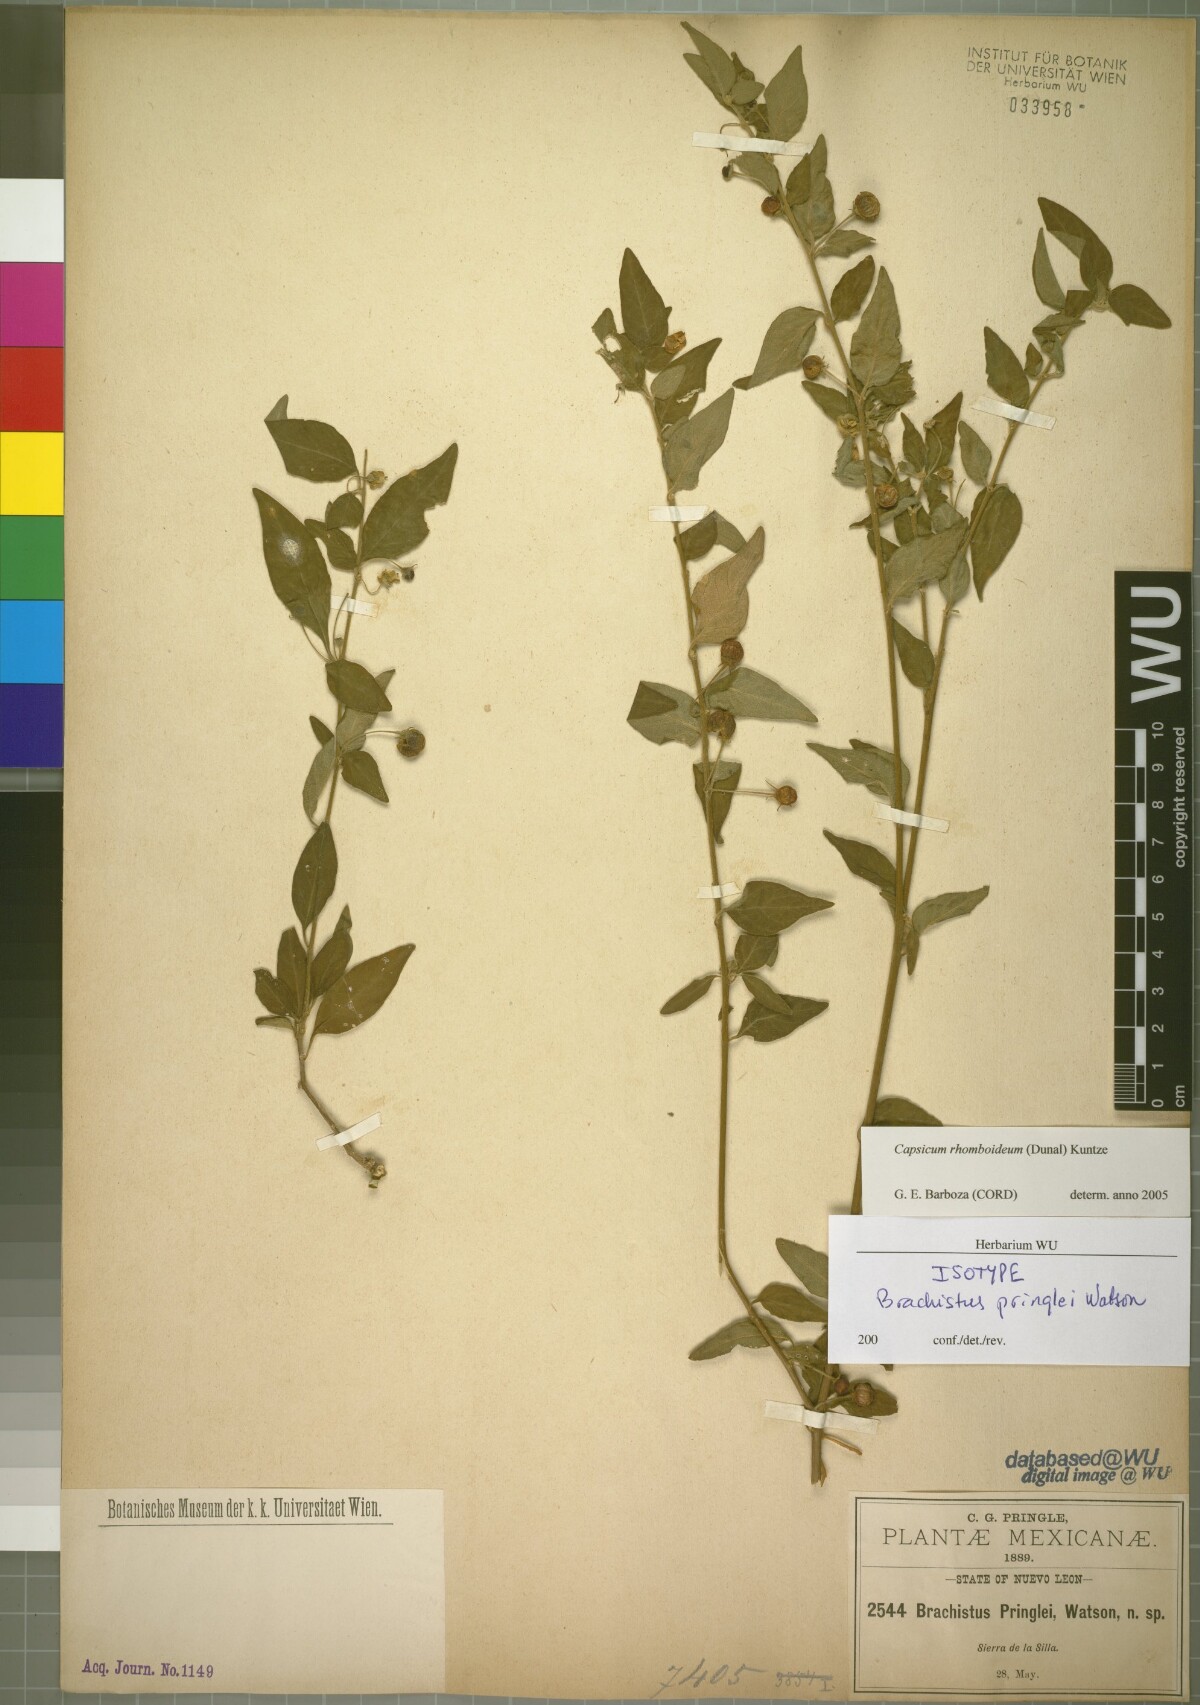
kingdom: Plantae
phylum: Tracheophyta
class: Magnoliopsida
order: Solanales
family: Solanaceae
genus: Capsicum
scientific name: Capsicum rhomboideum
